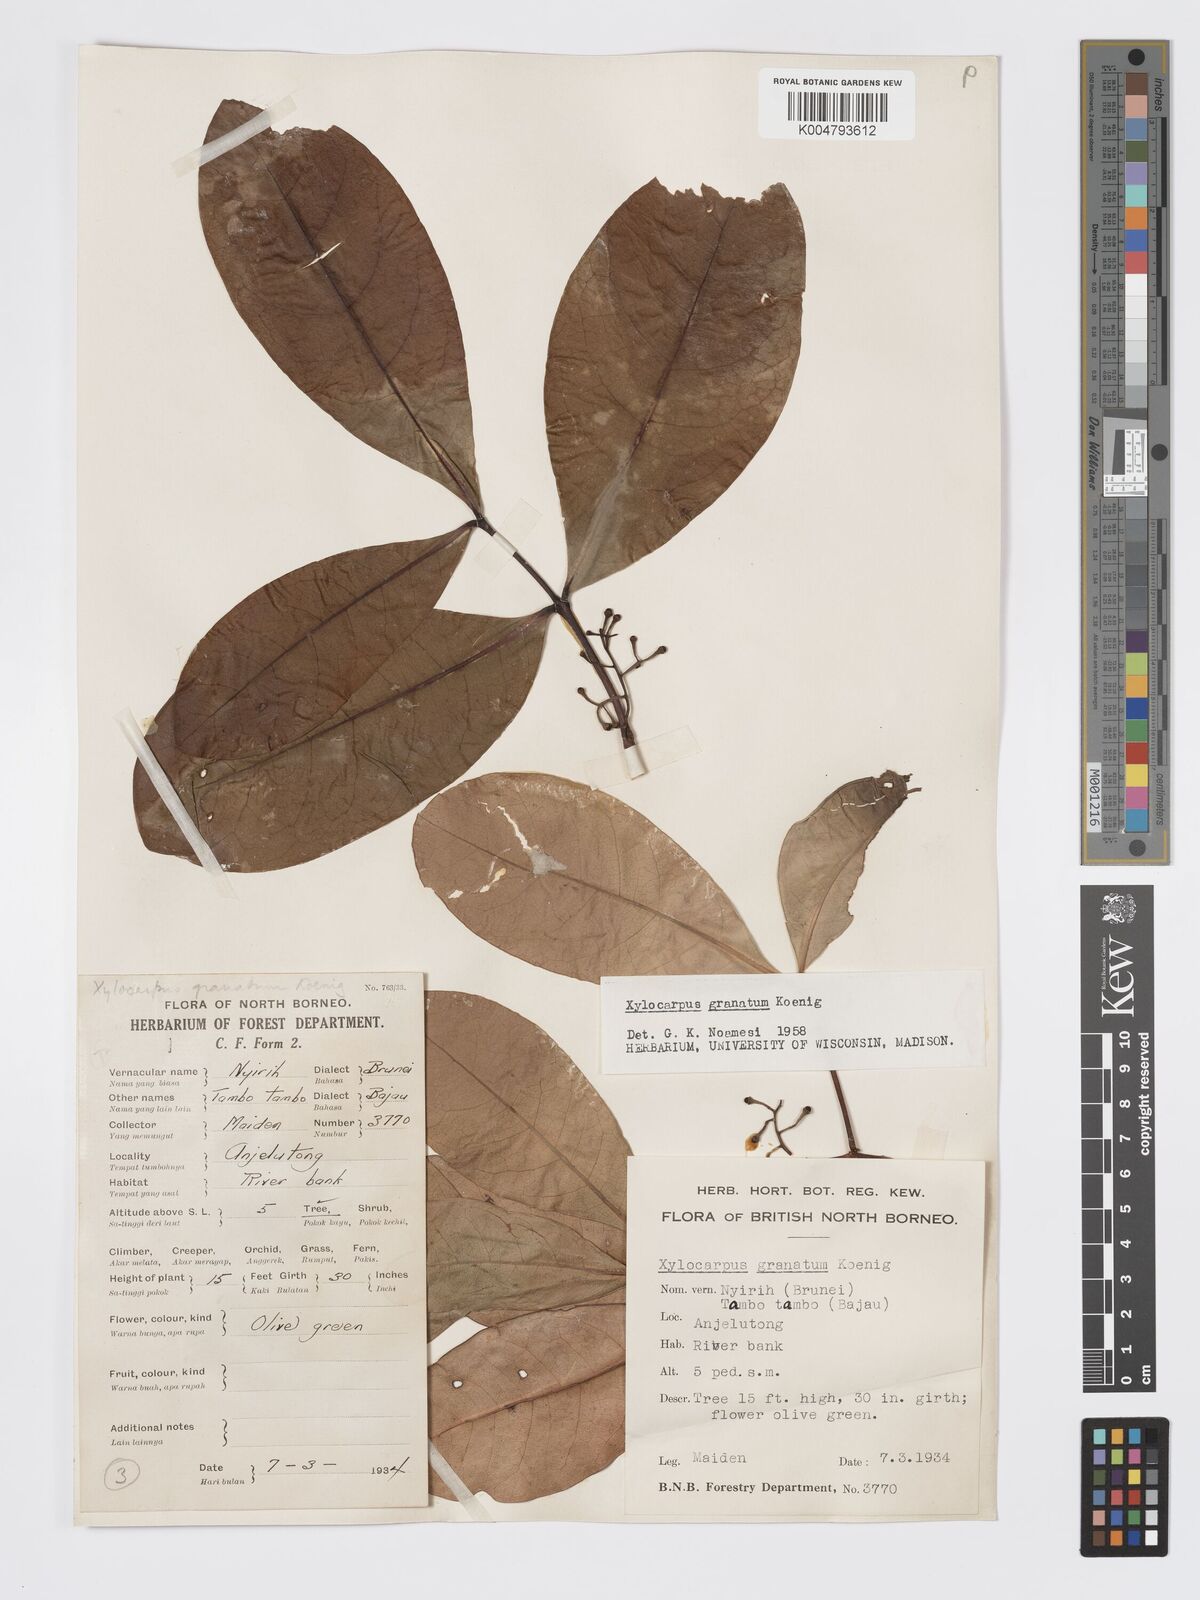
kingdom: Plantae
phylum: Tracheophyta
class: Magnoliopsida
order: Sapindales
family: Meliaceae
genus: Xylocarpus
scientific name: Xylocarpus granatum
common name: Apple mangrove
